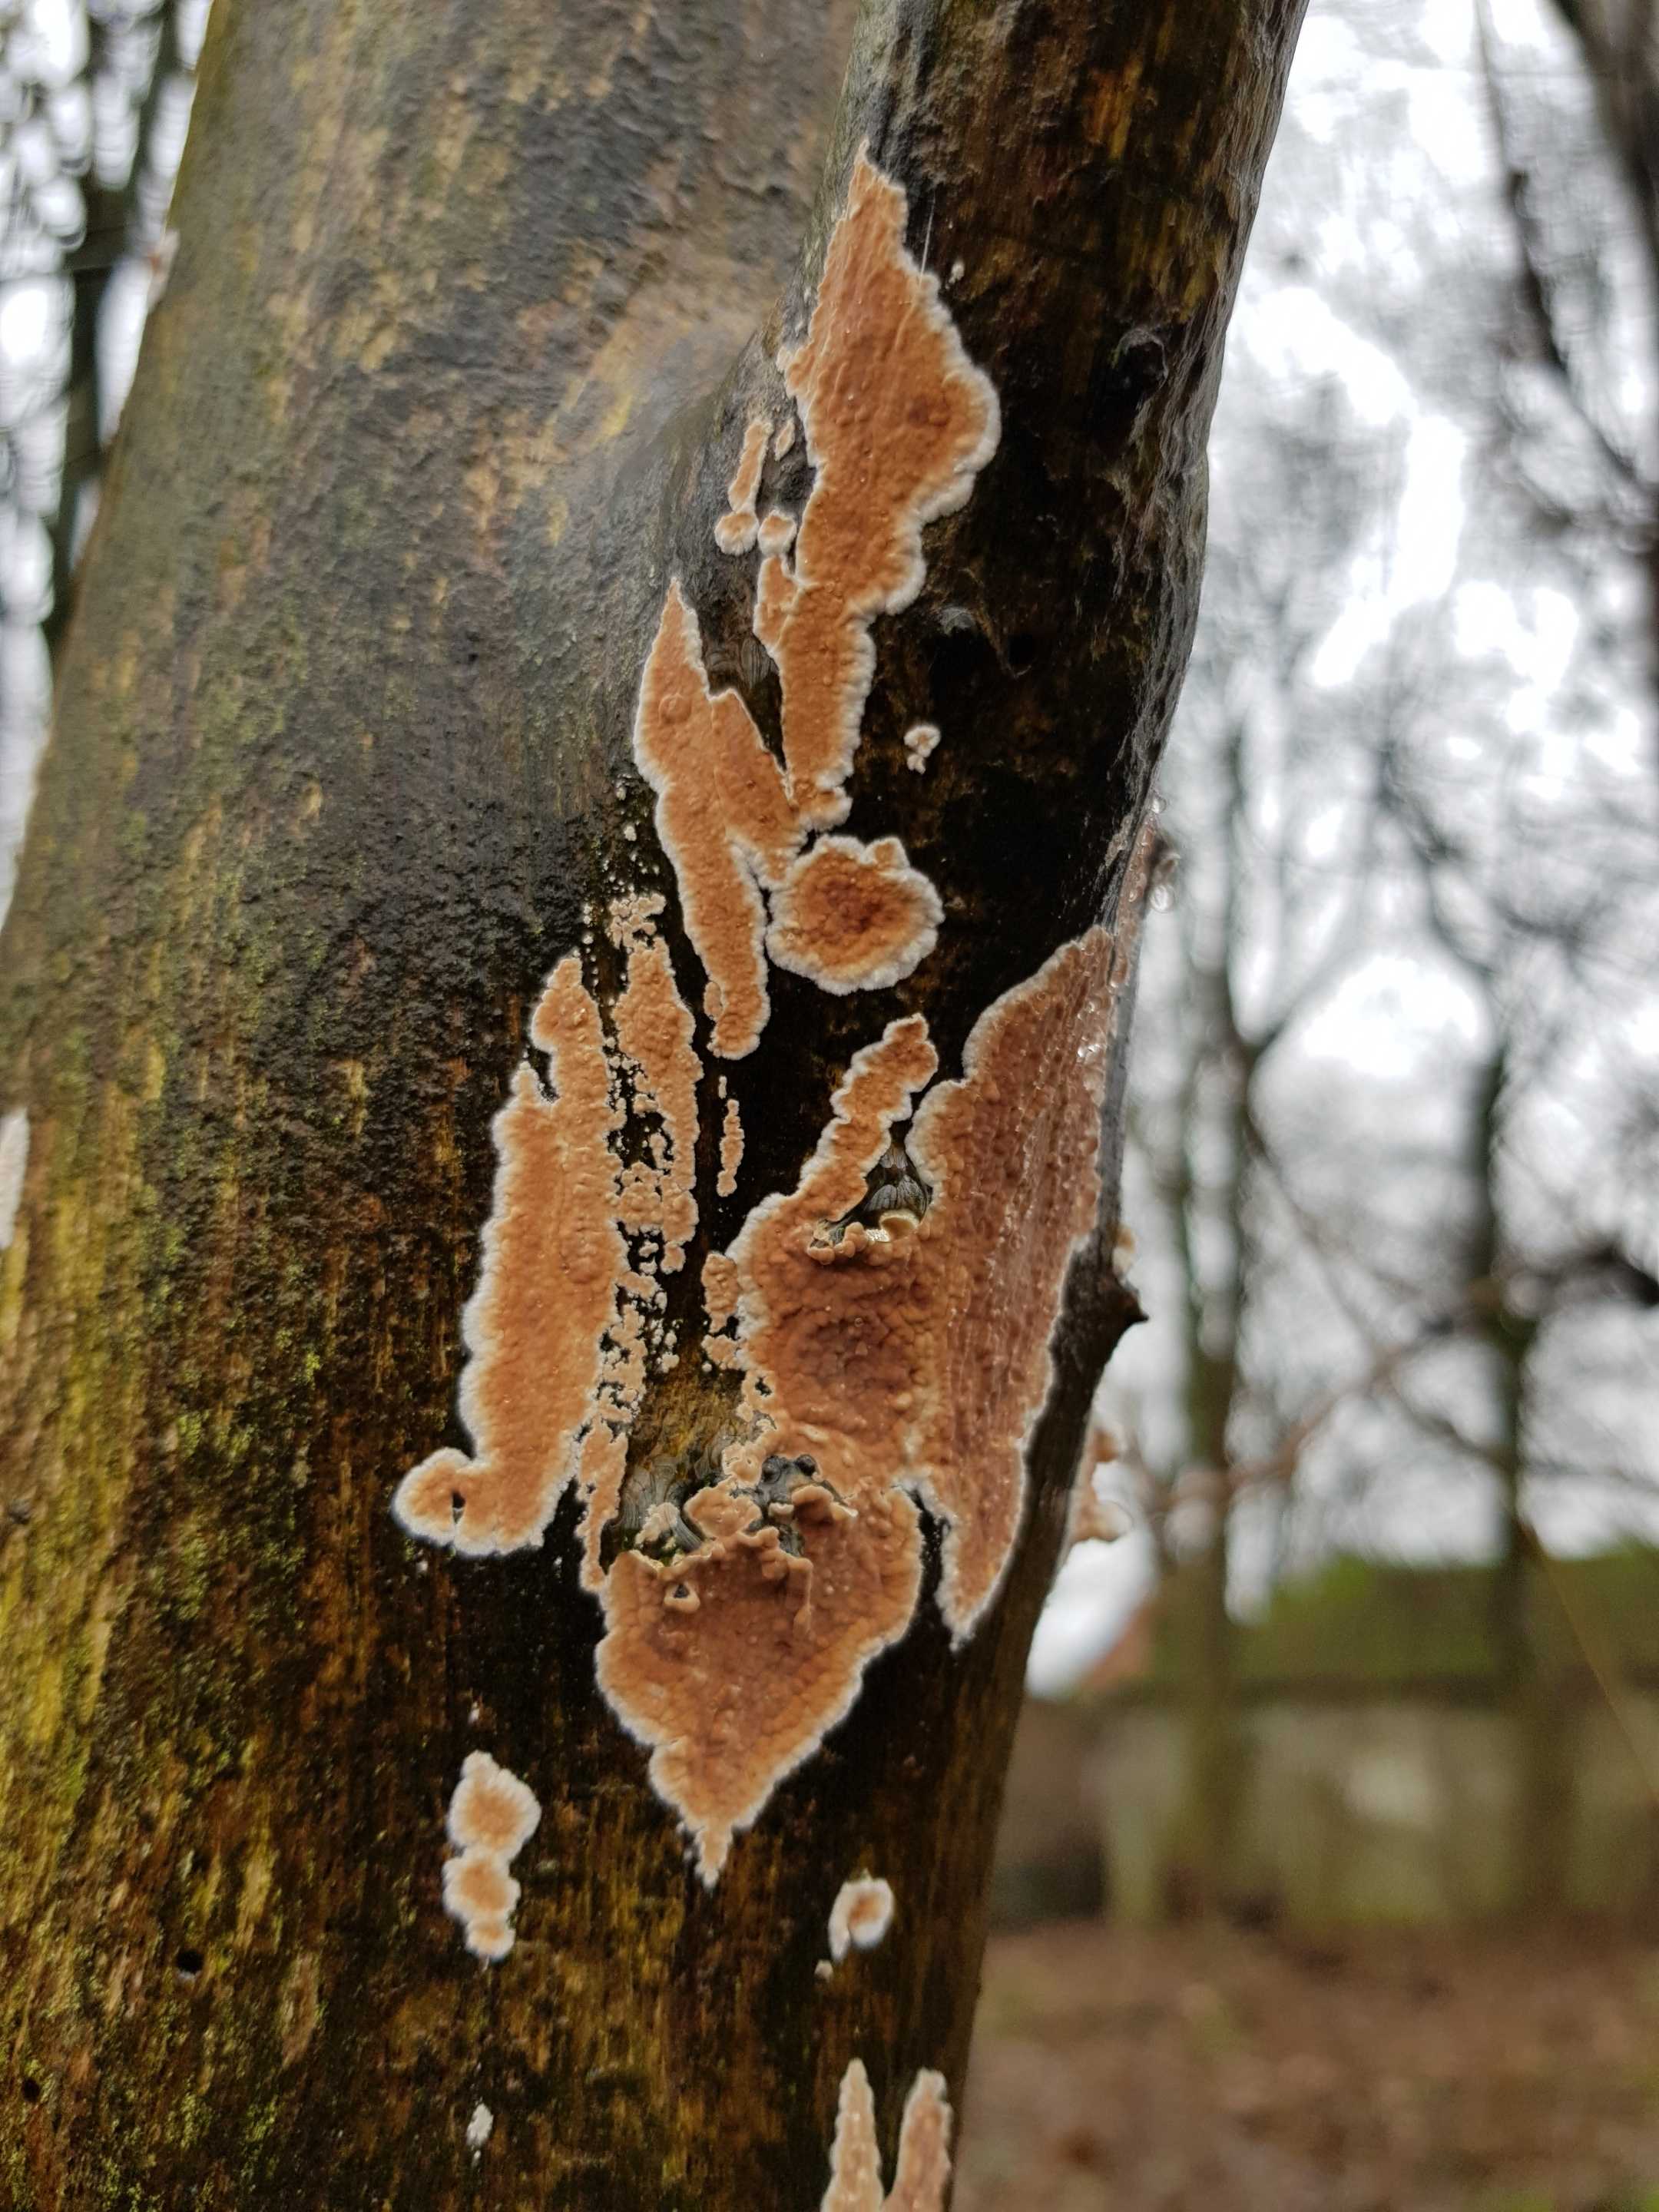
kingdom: Fungi
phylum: Basidiomycota
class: Agaricomycetes
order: Agaricales
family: Physalacriaceae
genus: Cylindrobasidium
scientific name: Cylindrobasidium evolvens
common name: sprækkehinde
